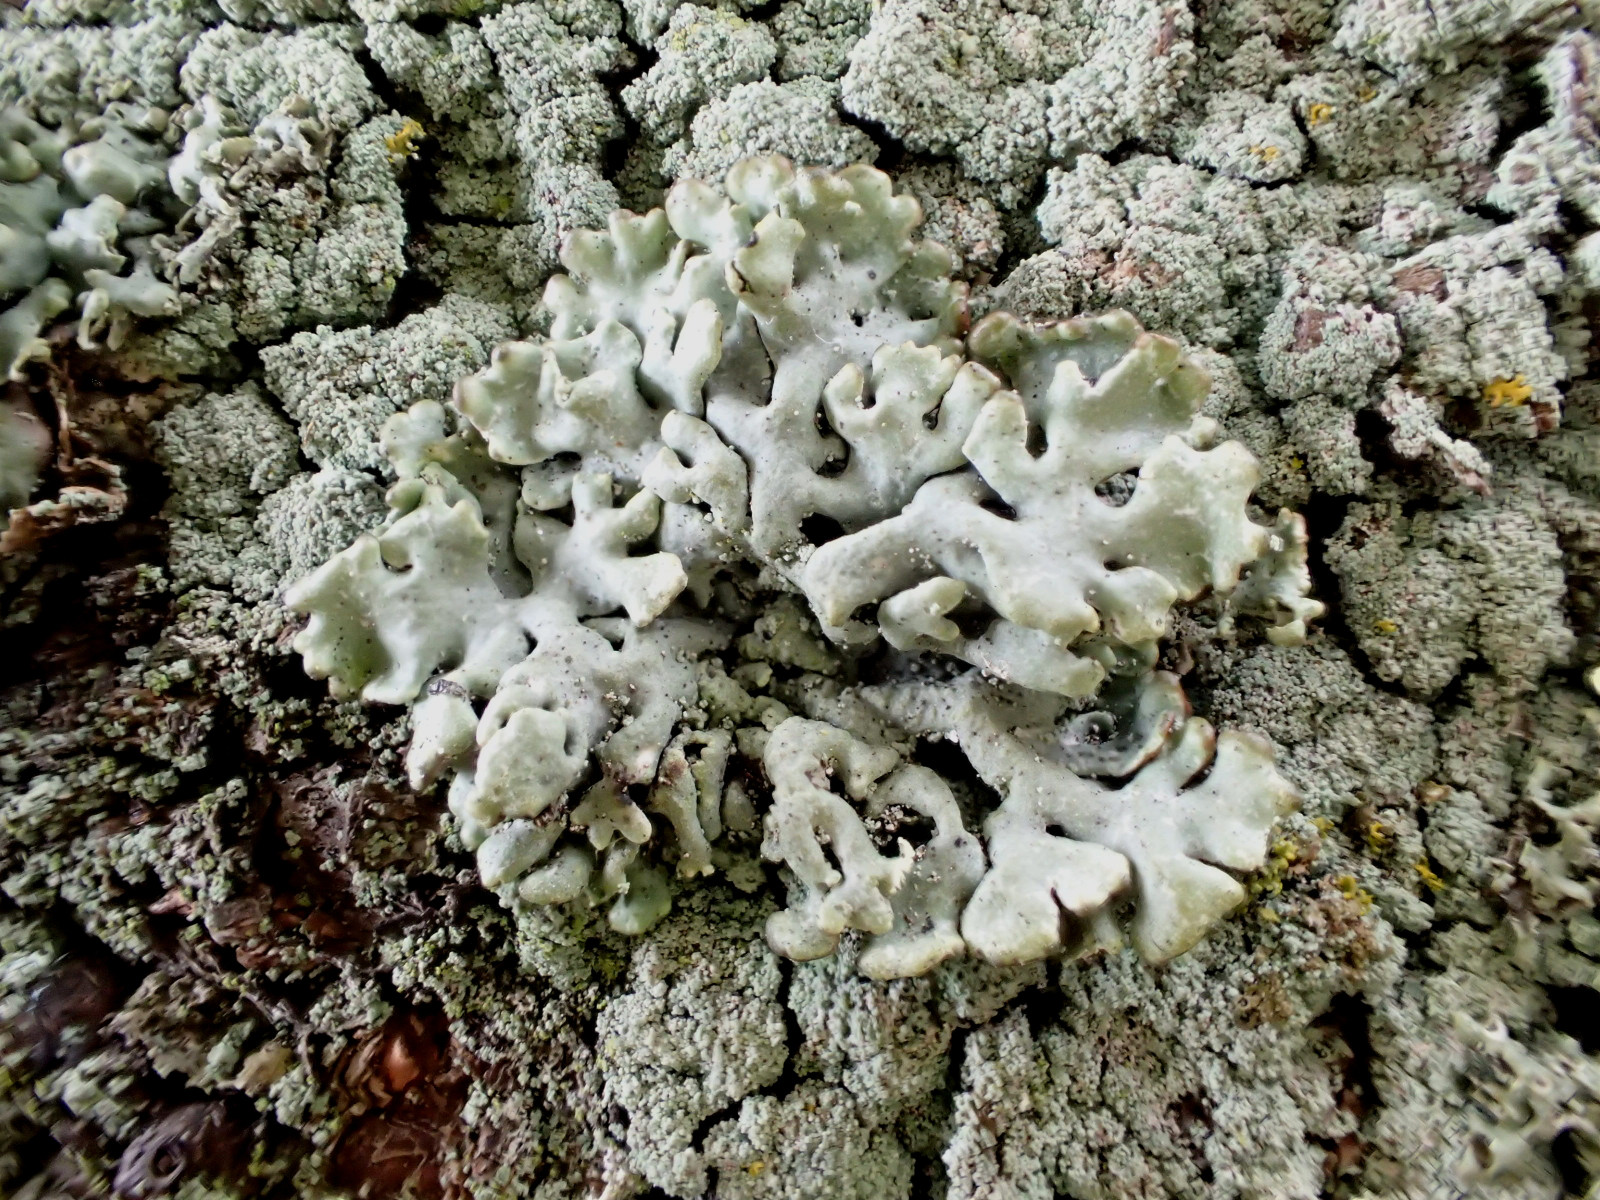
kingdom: Fungi
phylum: Ascomycota
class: Lecanoromycetes
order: Lecanorales
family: Parmeliaceae
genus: Hypogymnia
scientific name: Hypogymnia physodes
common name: almindelig kvistlav
